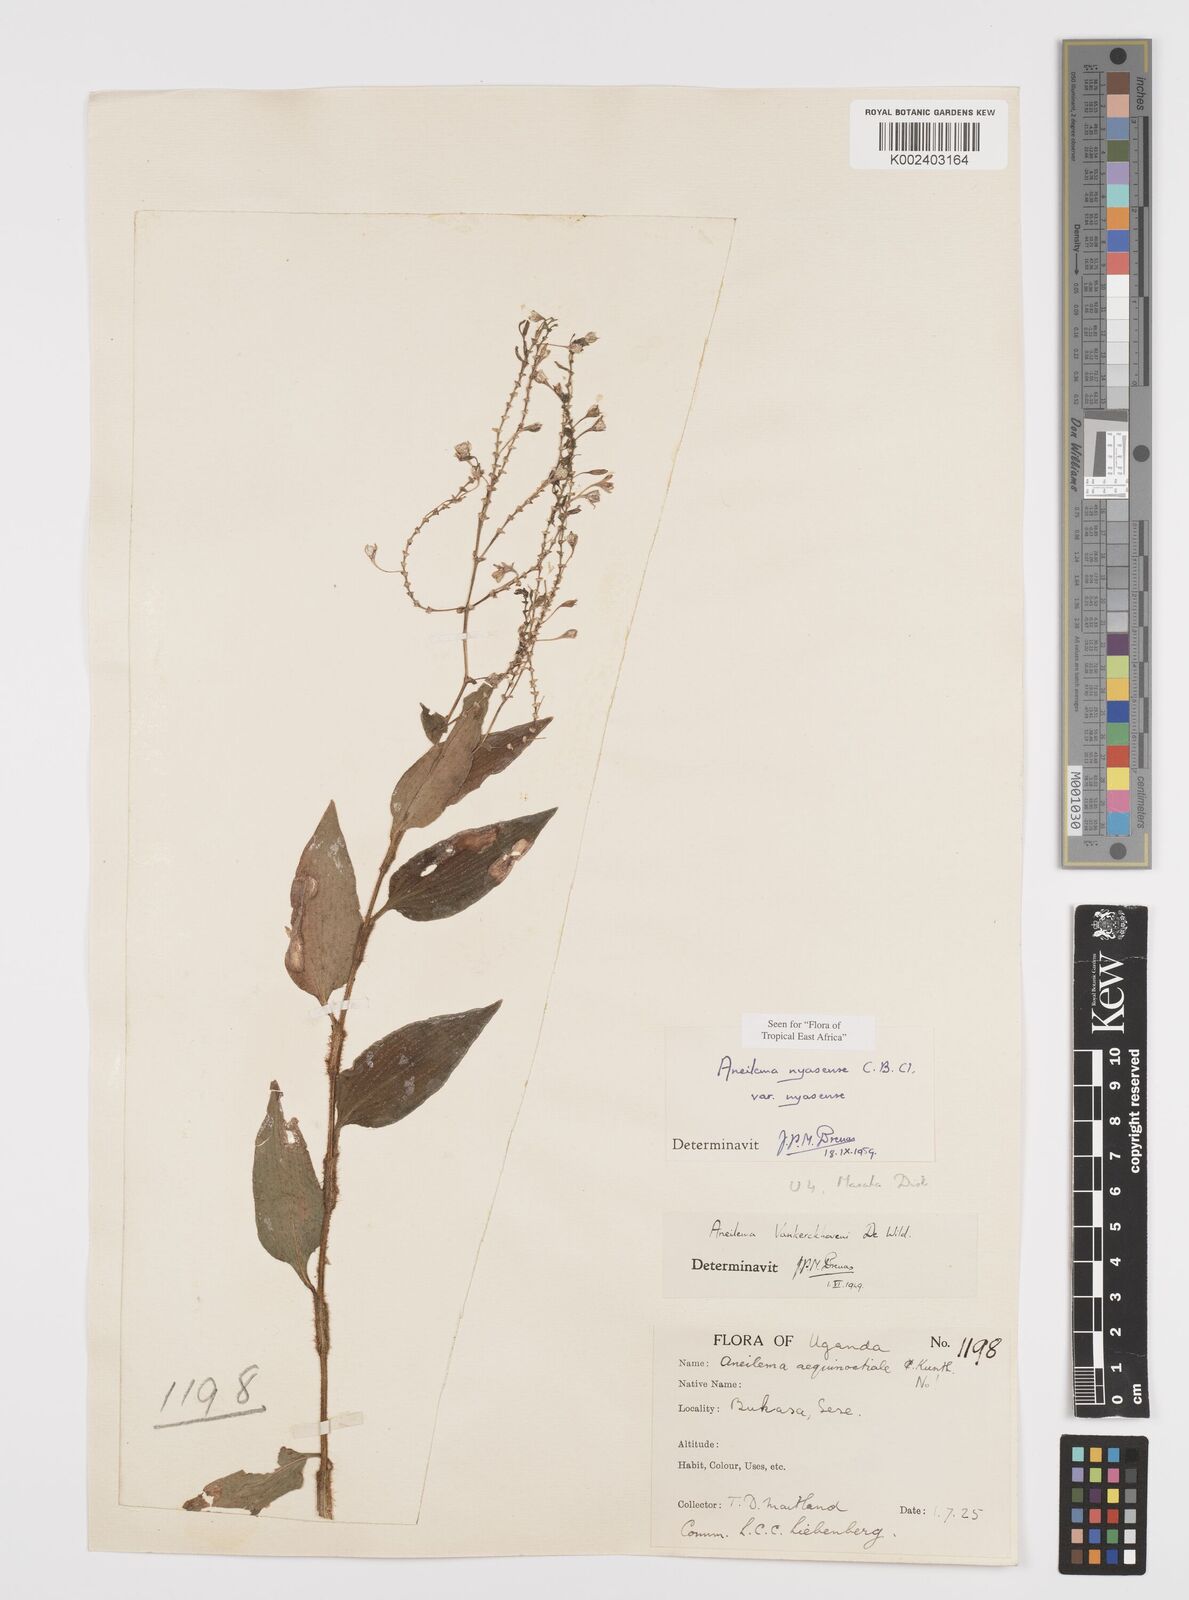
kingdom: Plantae
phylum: Tracheophyta
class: Liliopsida
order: Commelinales
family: Commelinaceae
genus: Aneilema
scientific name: Aneilema nyasense
